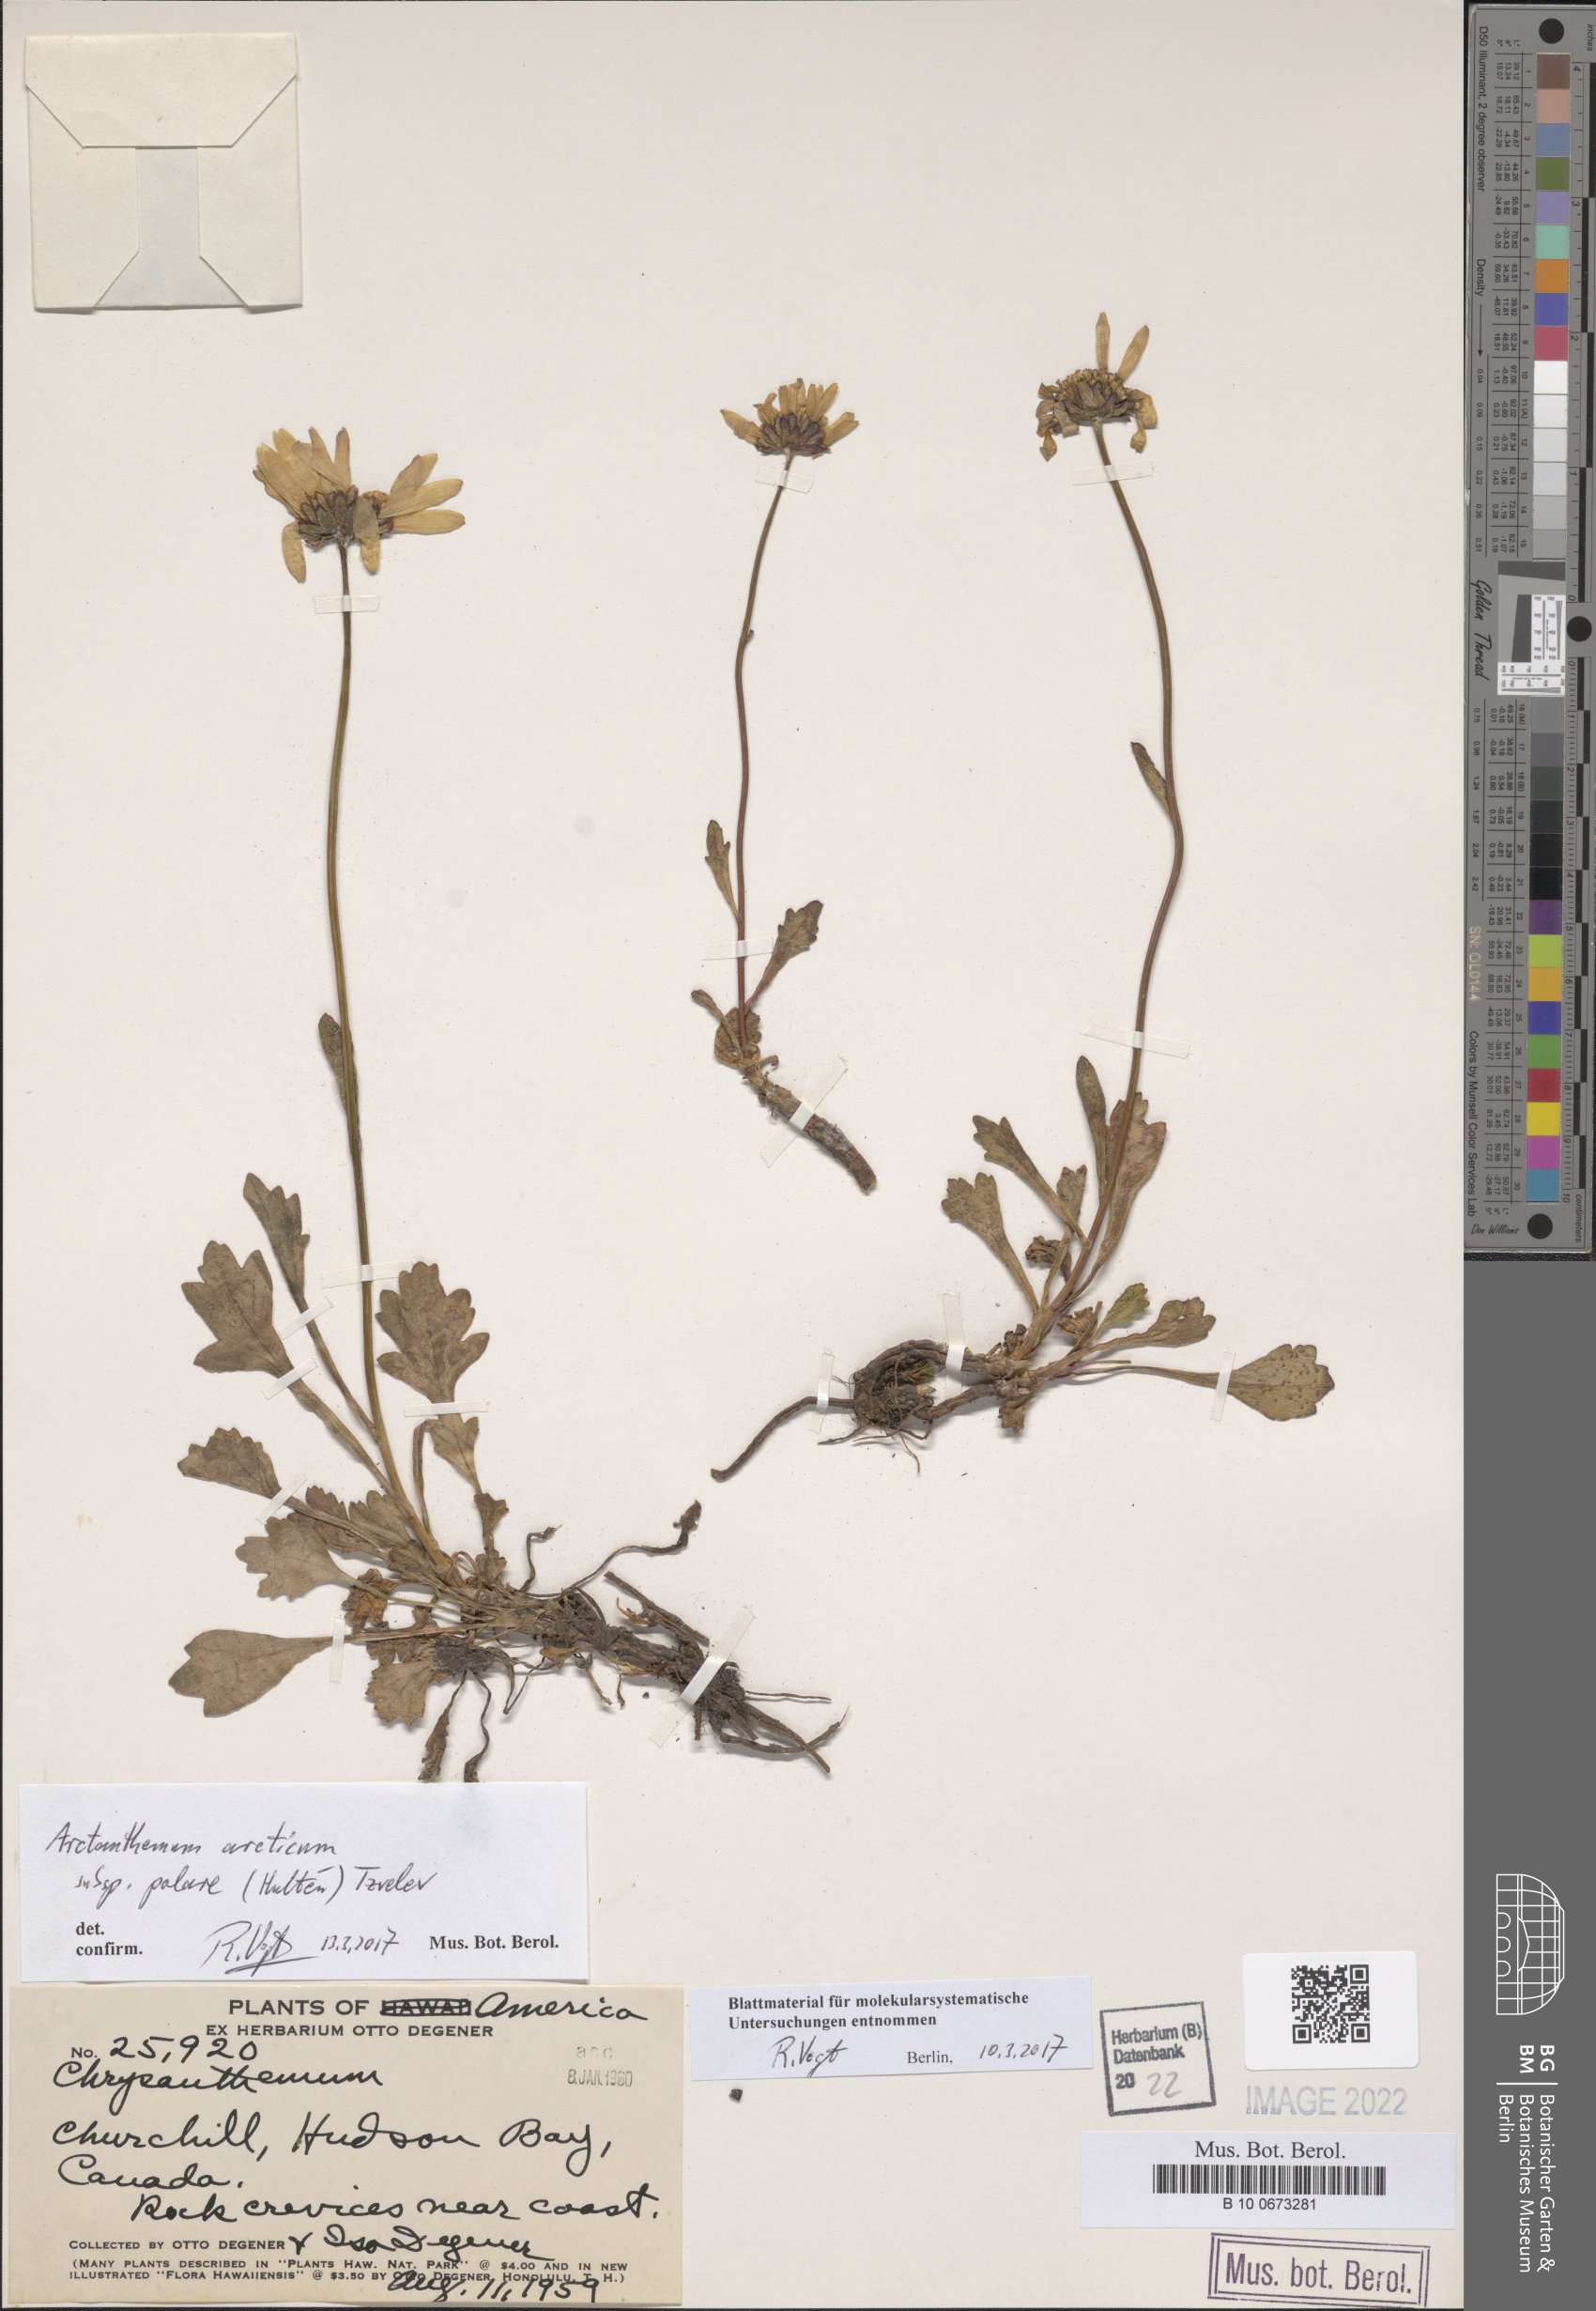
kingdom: Plantae
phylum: Tracheophyta
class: Magnoliopsida
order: Asterales
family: Asteraceae
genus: Arctanthemum
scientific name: Arctanthemum arcticum
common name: Arctic daisy
